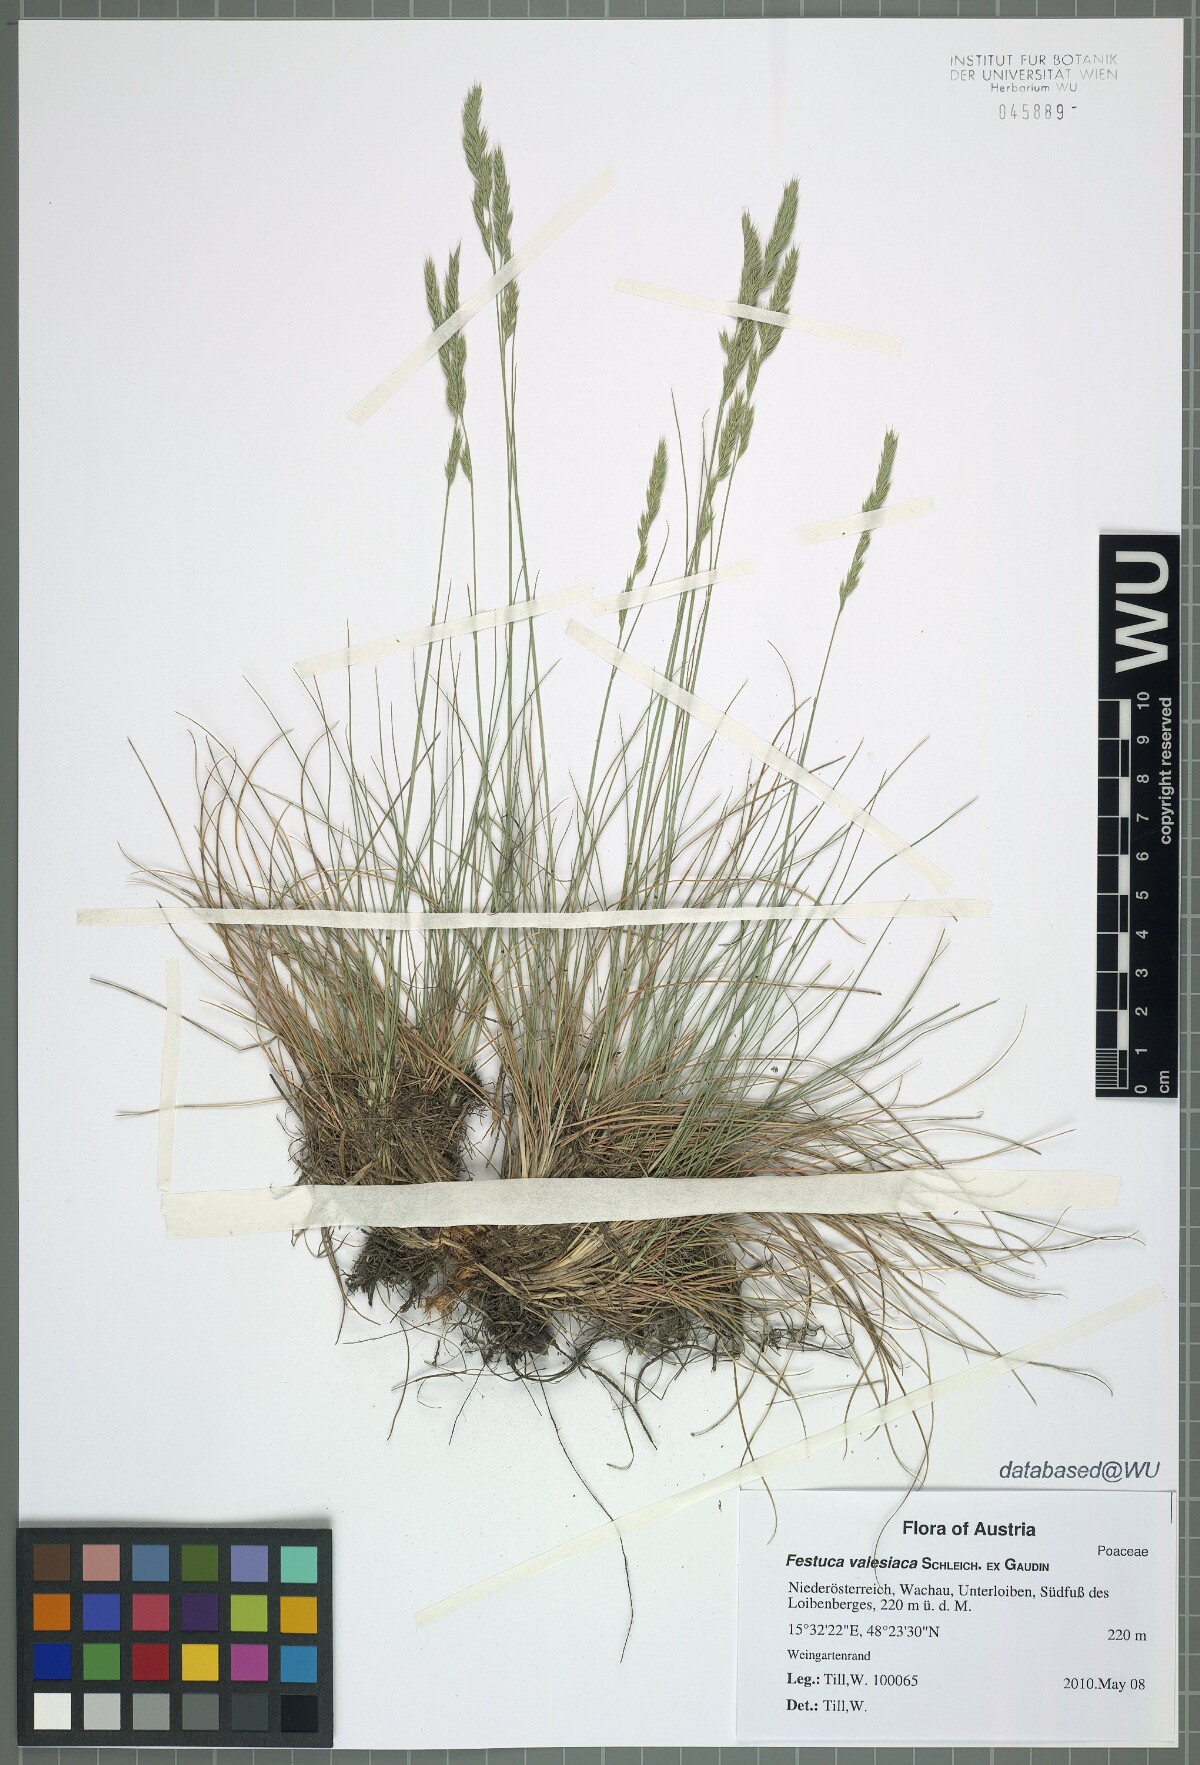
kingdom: Plantae
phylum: Tracheophyta
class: Liliopsida
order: Poales
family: Poaceae
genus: Festuca
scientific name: Festuca valesiaca
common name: Volga fescue
